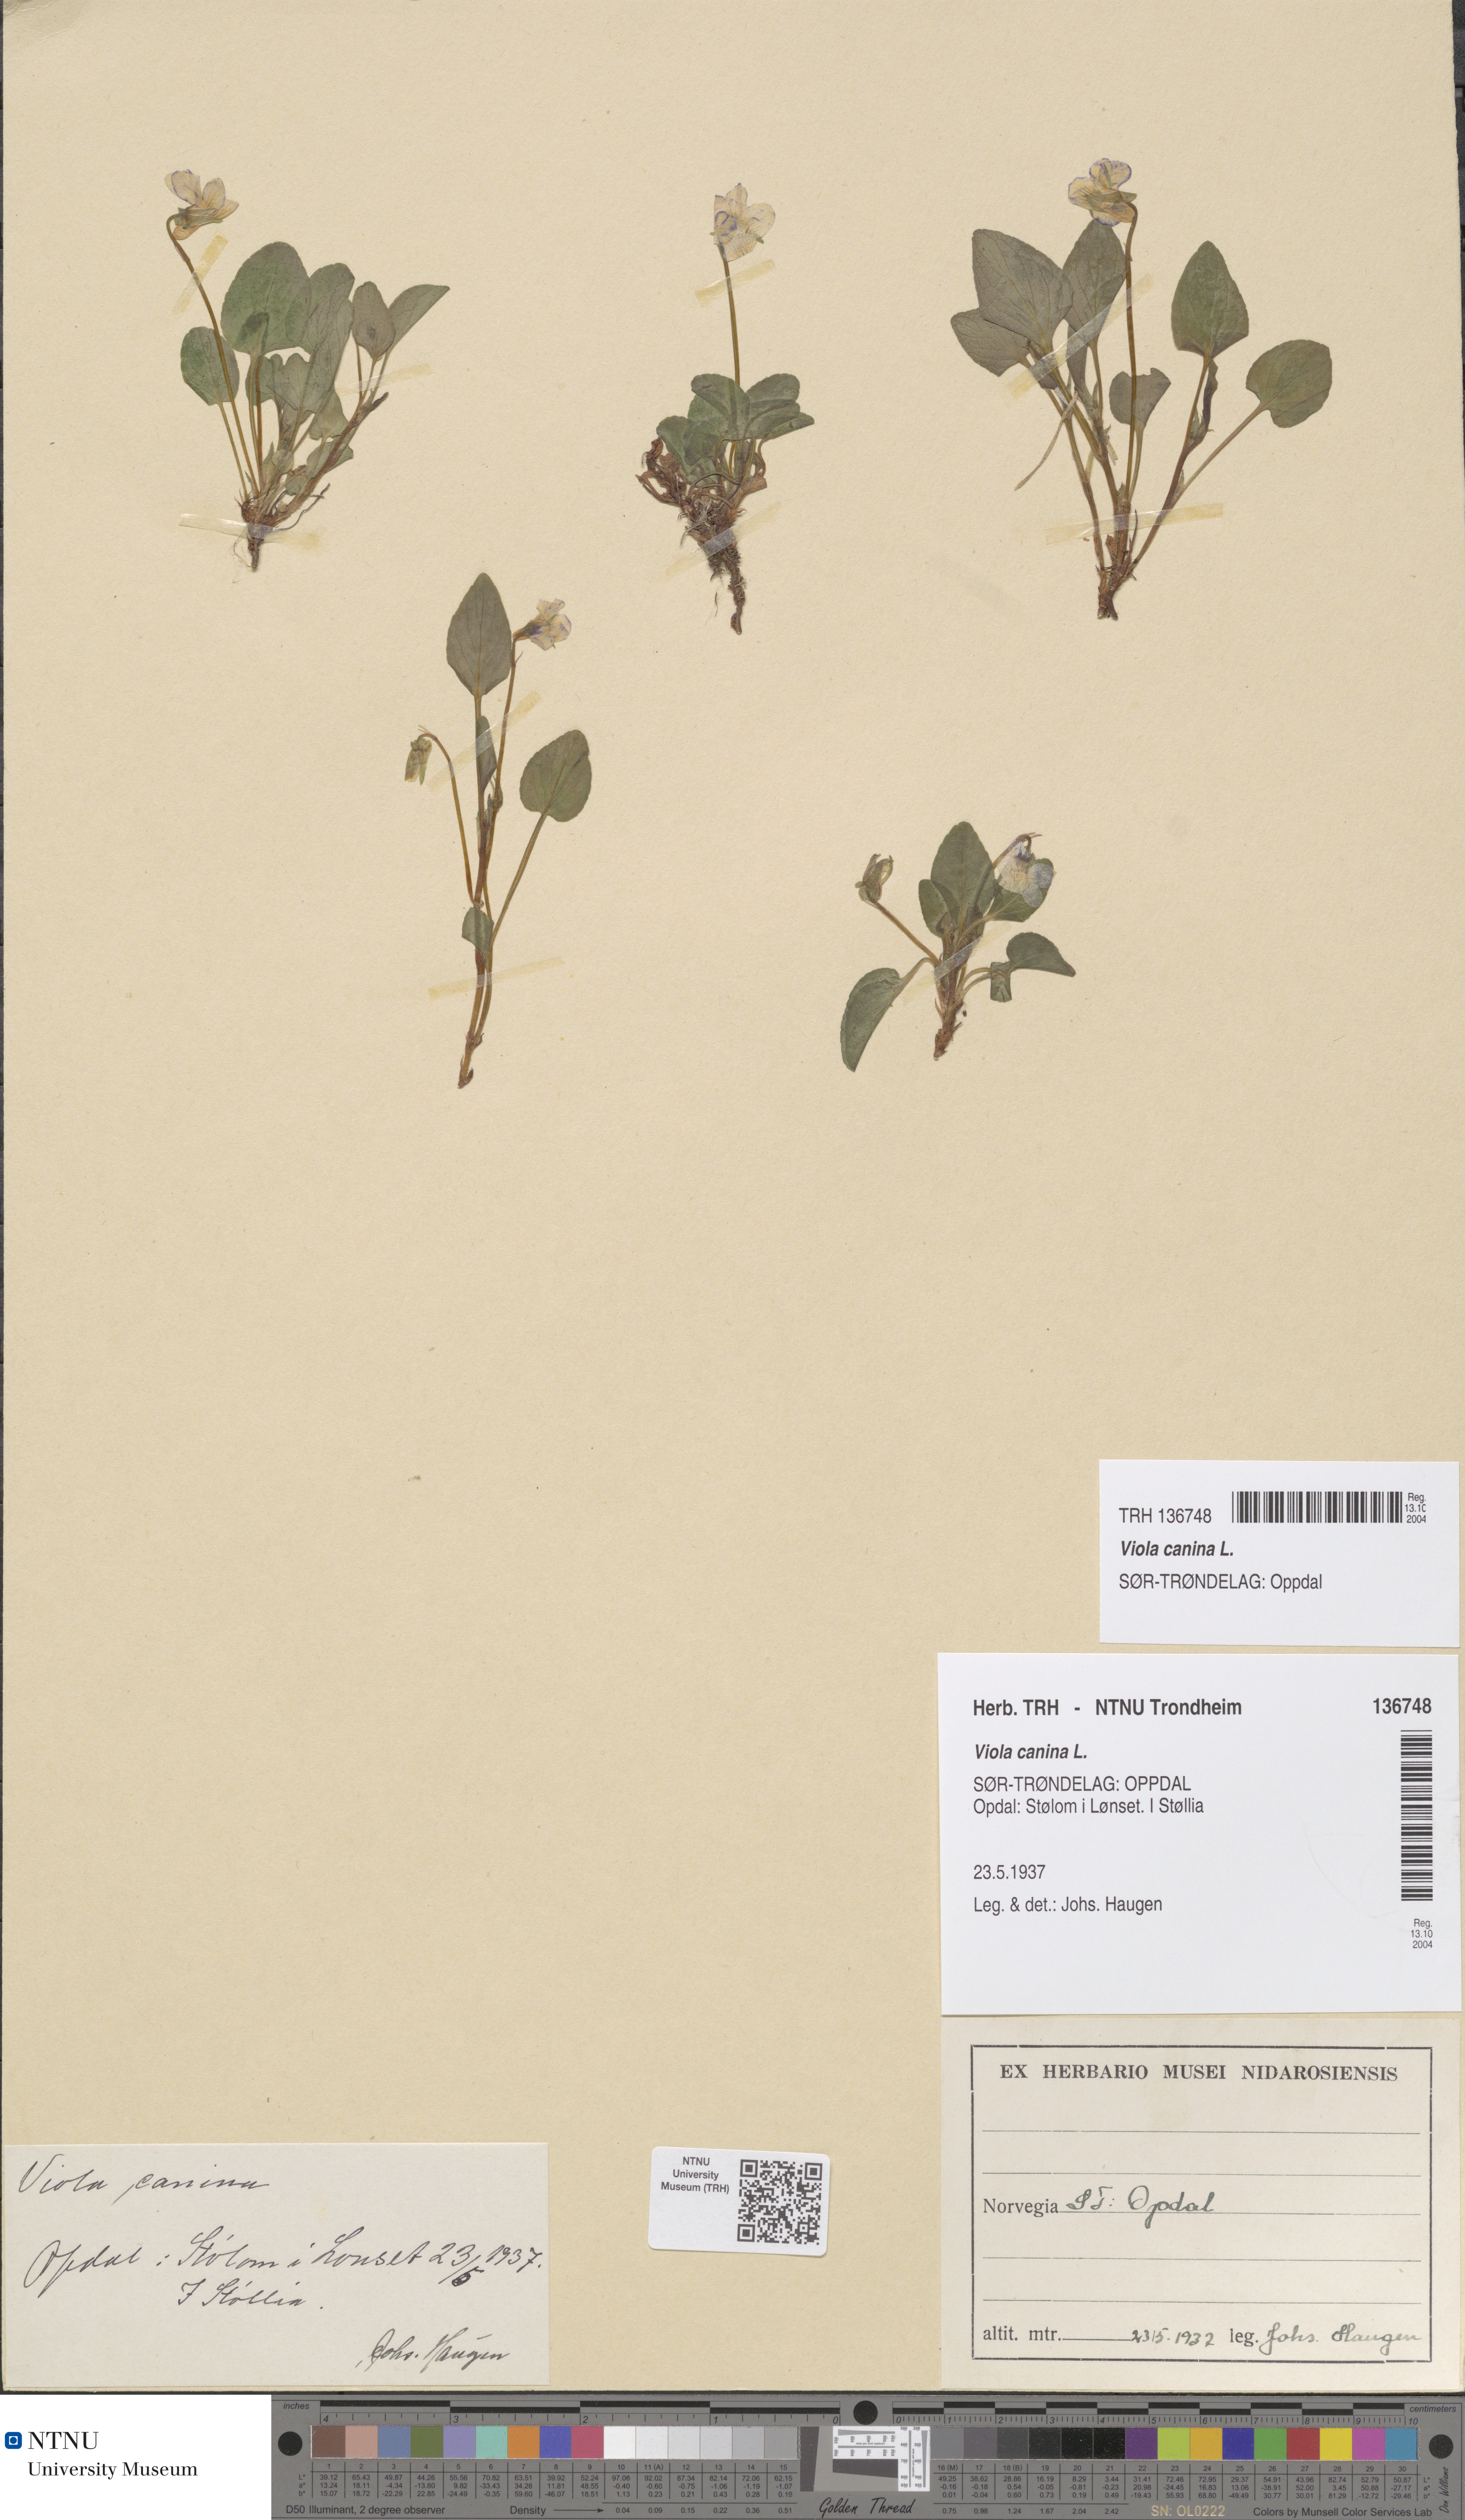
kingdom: Plantae
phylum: Tracheophyta
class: Magnoliopsida
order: Malpighiales
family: Violaceae
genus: Viola
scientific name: Viola canina
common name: Heath dog-violet
